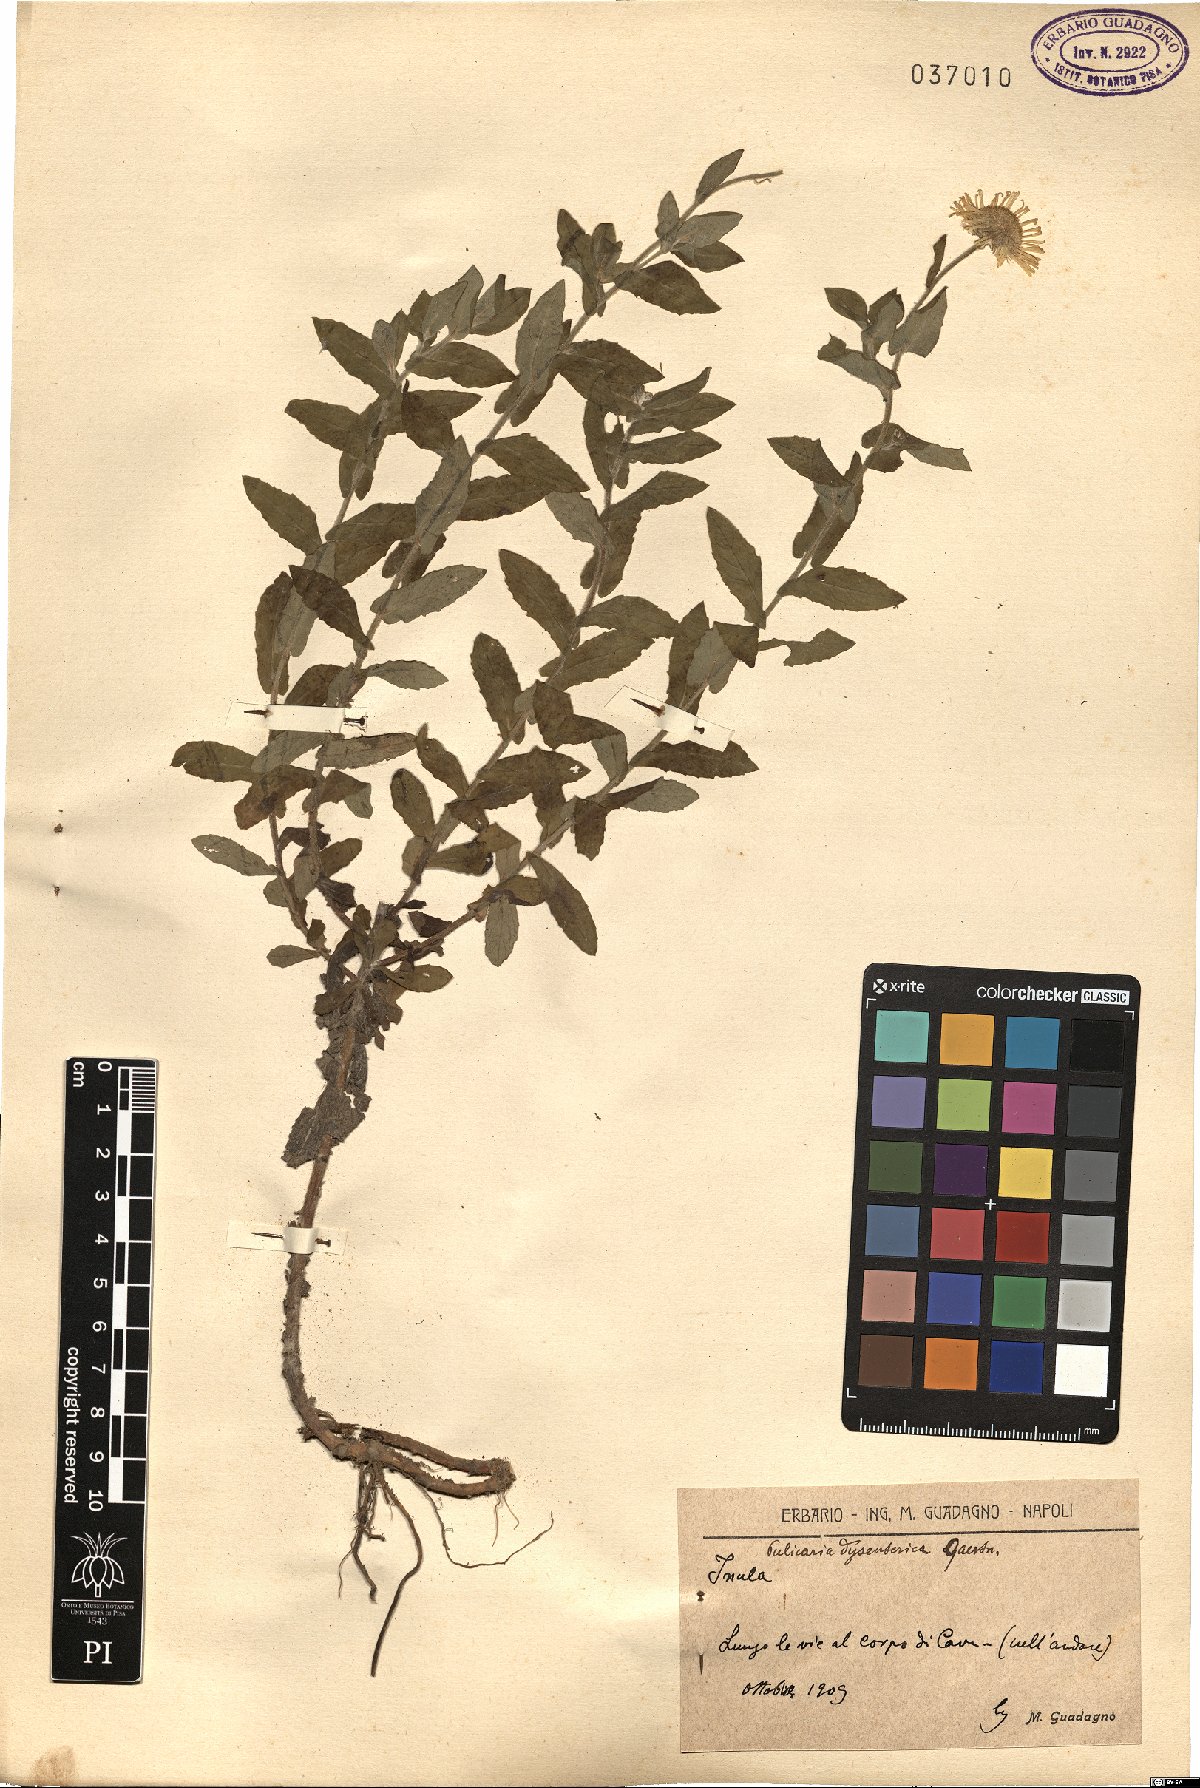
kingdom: Plantae
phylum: Tracheophyta
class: Magnoliopsida
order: Asterales
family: Asteraceae
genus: Pulicaria
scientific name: Pulicaria dysenterica
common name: Common fleabane
